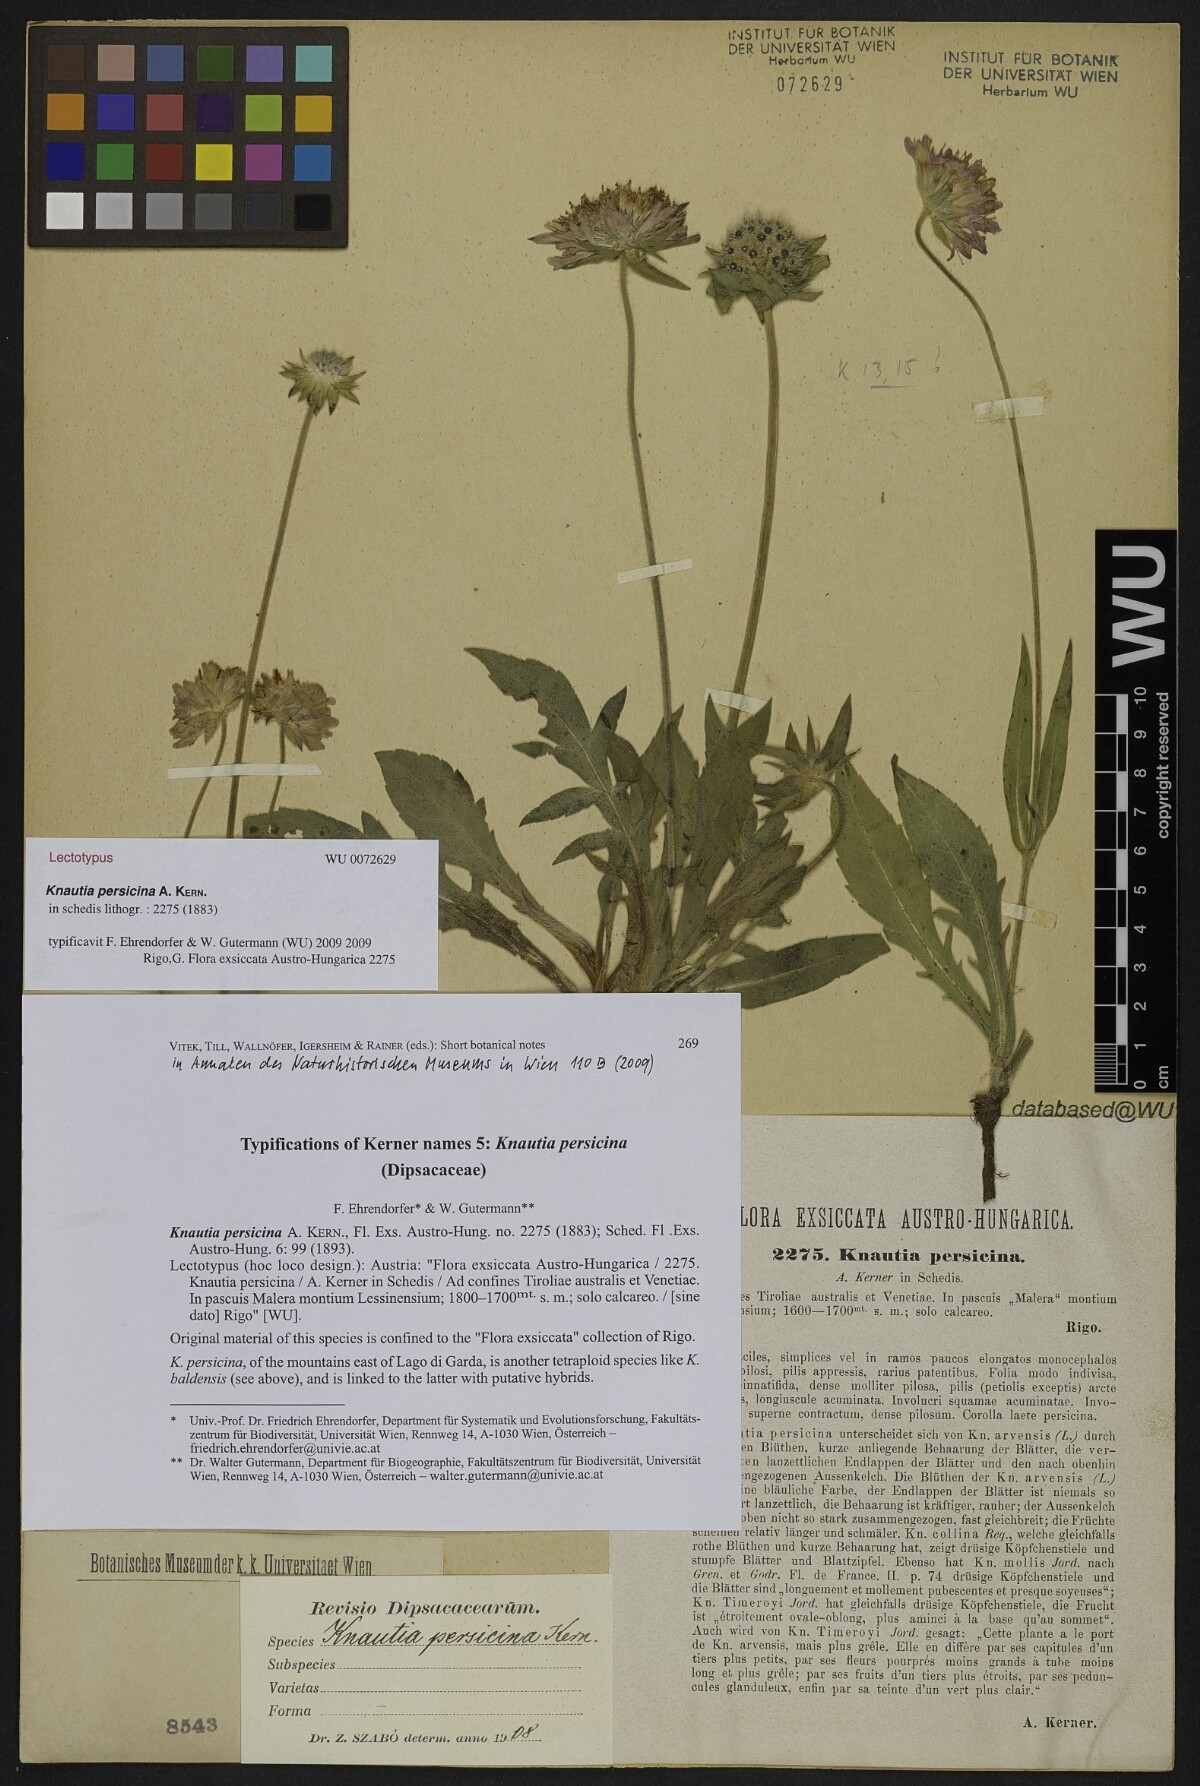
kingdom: Plantae
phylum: Tracheophyta
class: Magnoliopsida
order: Dipsacales
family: Caprifoliaceae
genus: Knautia
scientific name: Knautia persicina
